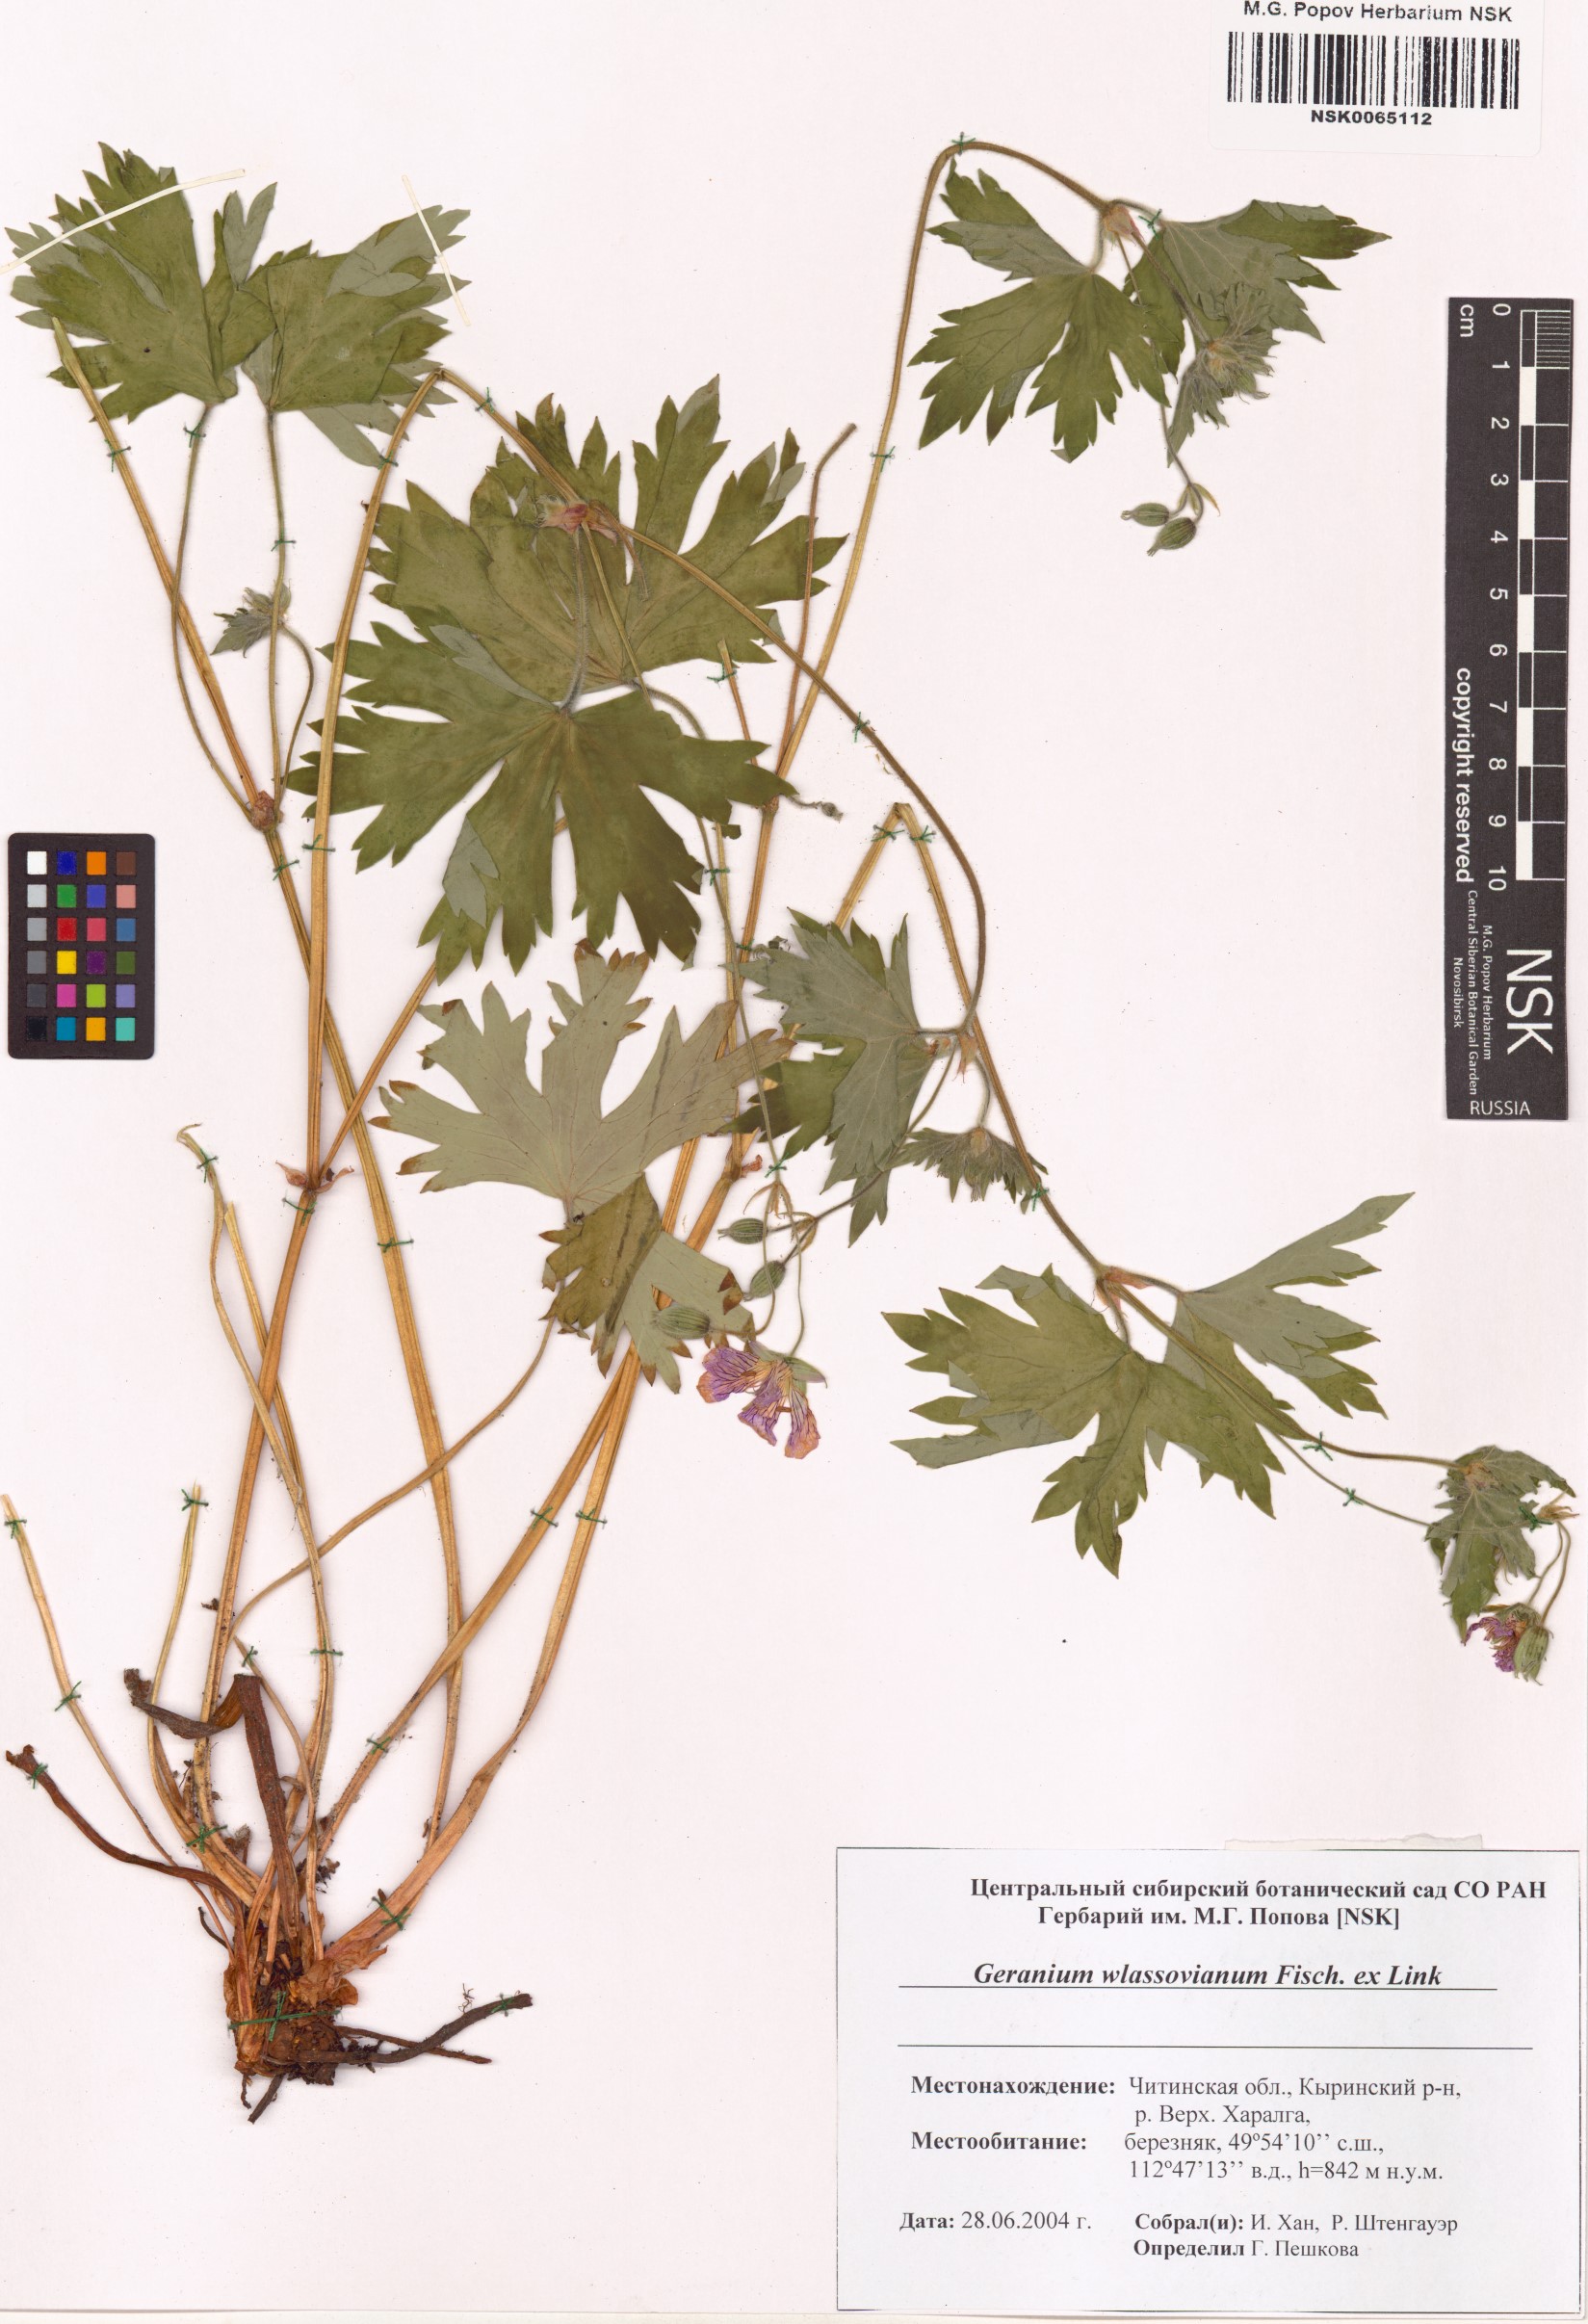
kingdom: Plantae
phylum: Tracheophyta
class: Magnoliopsida
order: Geraniales
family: Geraniaceae
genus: Geranium
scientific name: Geranium wlassovianum
